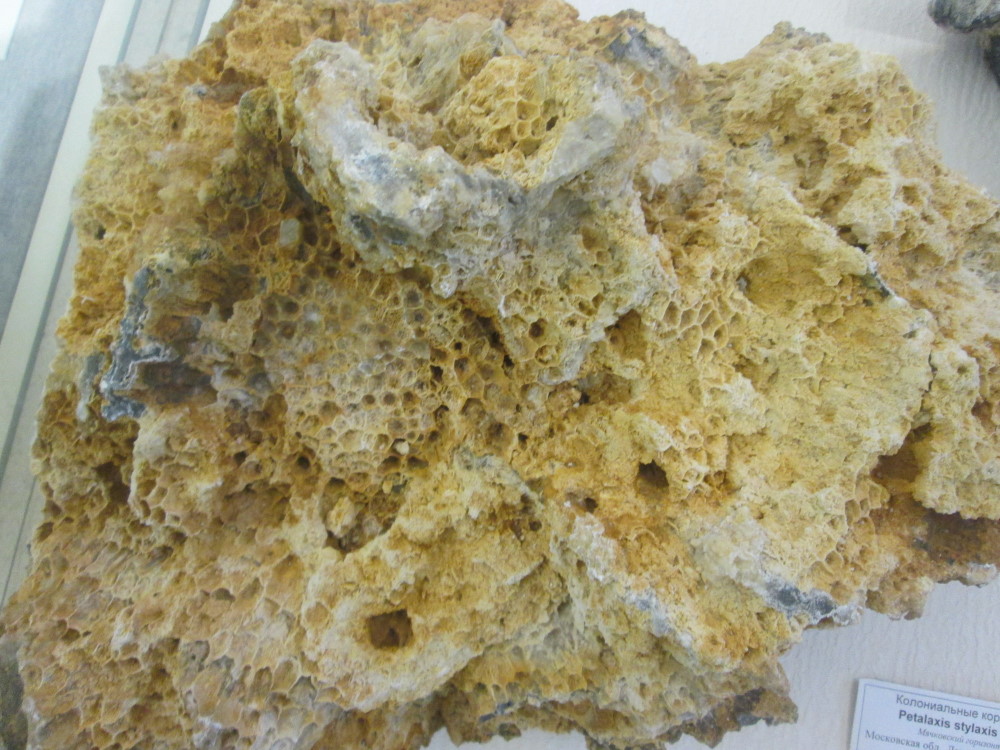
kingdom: Animalia
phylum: Cnidaria
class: Anthozoa
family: Petalaxidae
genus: Petalaxis
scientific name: Petalaxis Lithostrotion stylaxis
